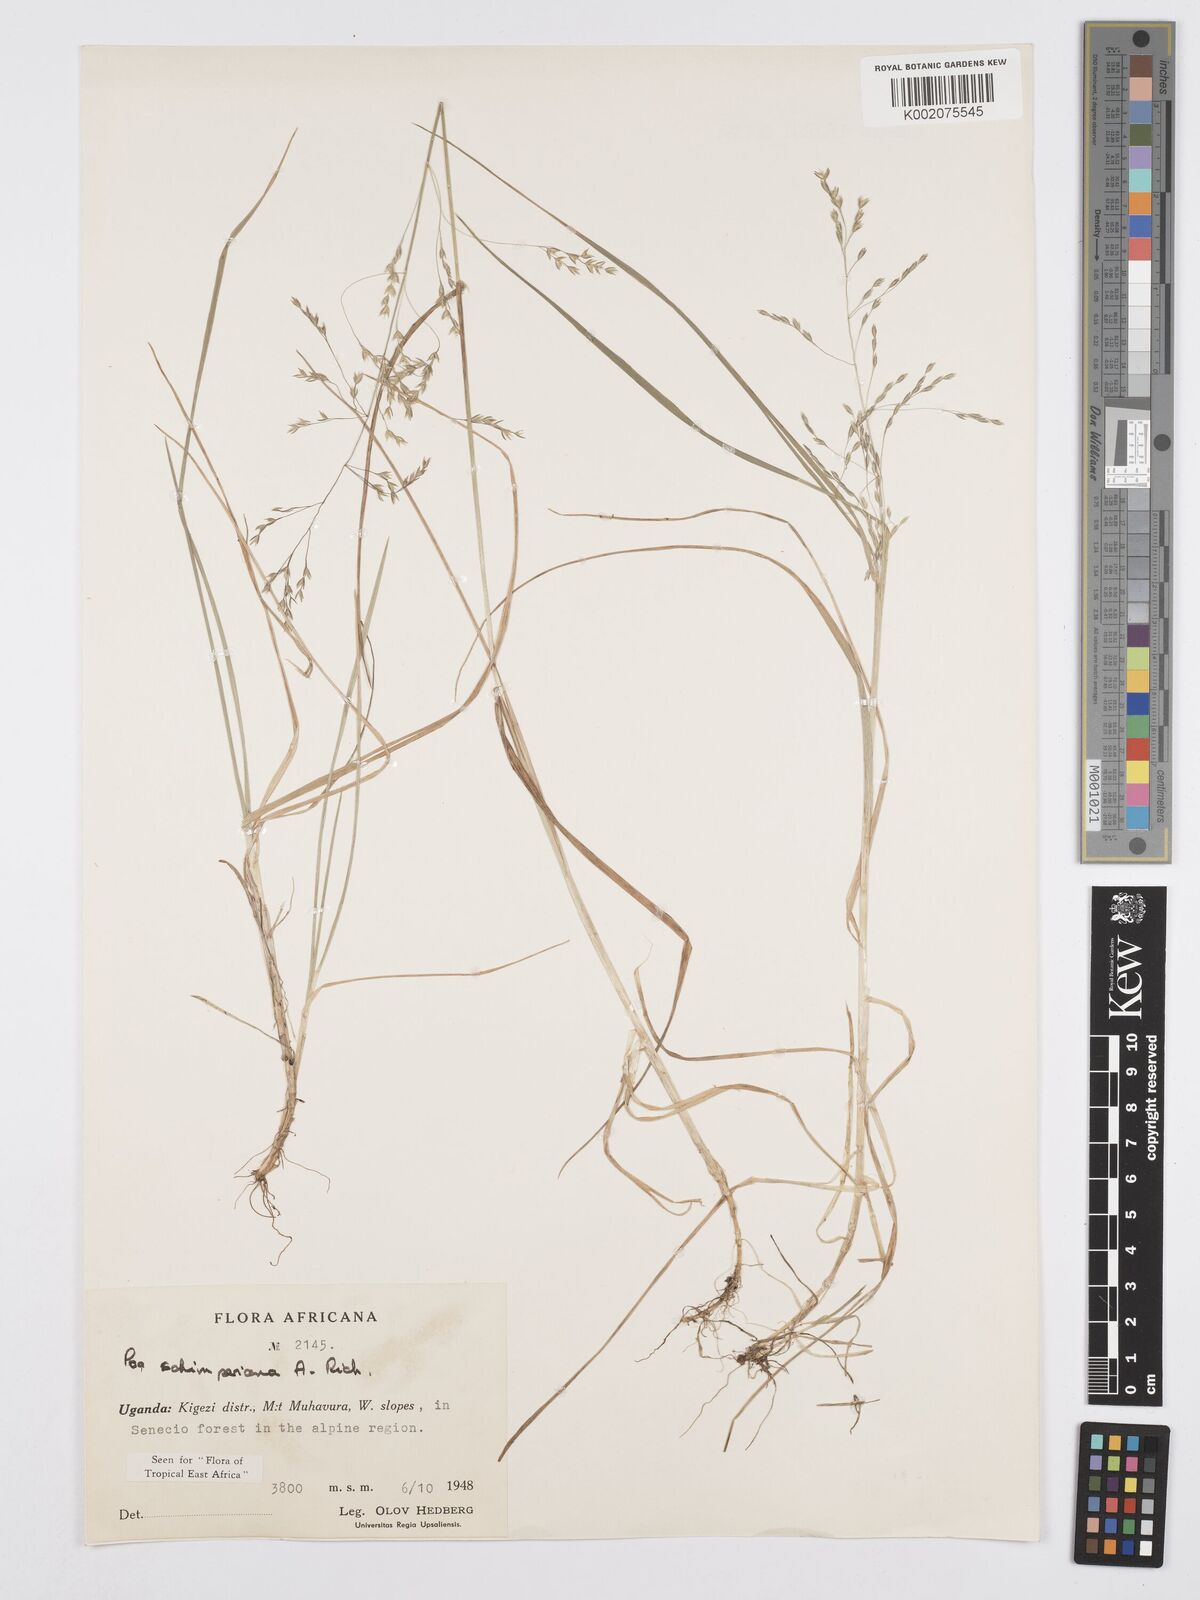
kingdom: Plantae
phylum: Tracheophyta
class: Liliopsida
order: Poales
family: Poaceae
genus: Poa
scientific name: Poa schimperiana
